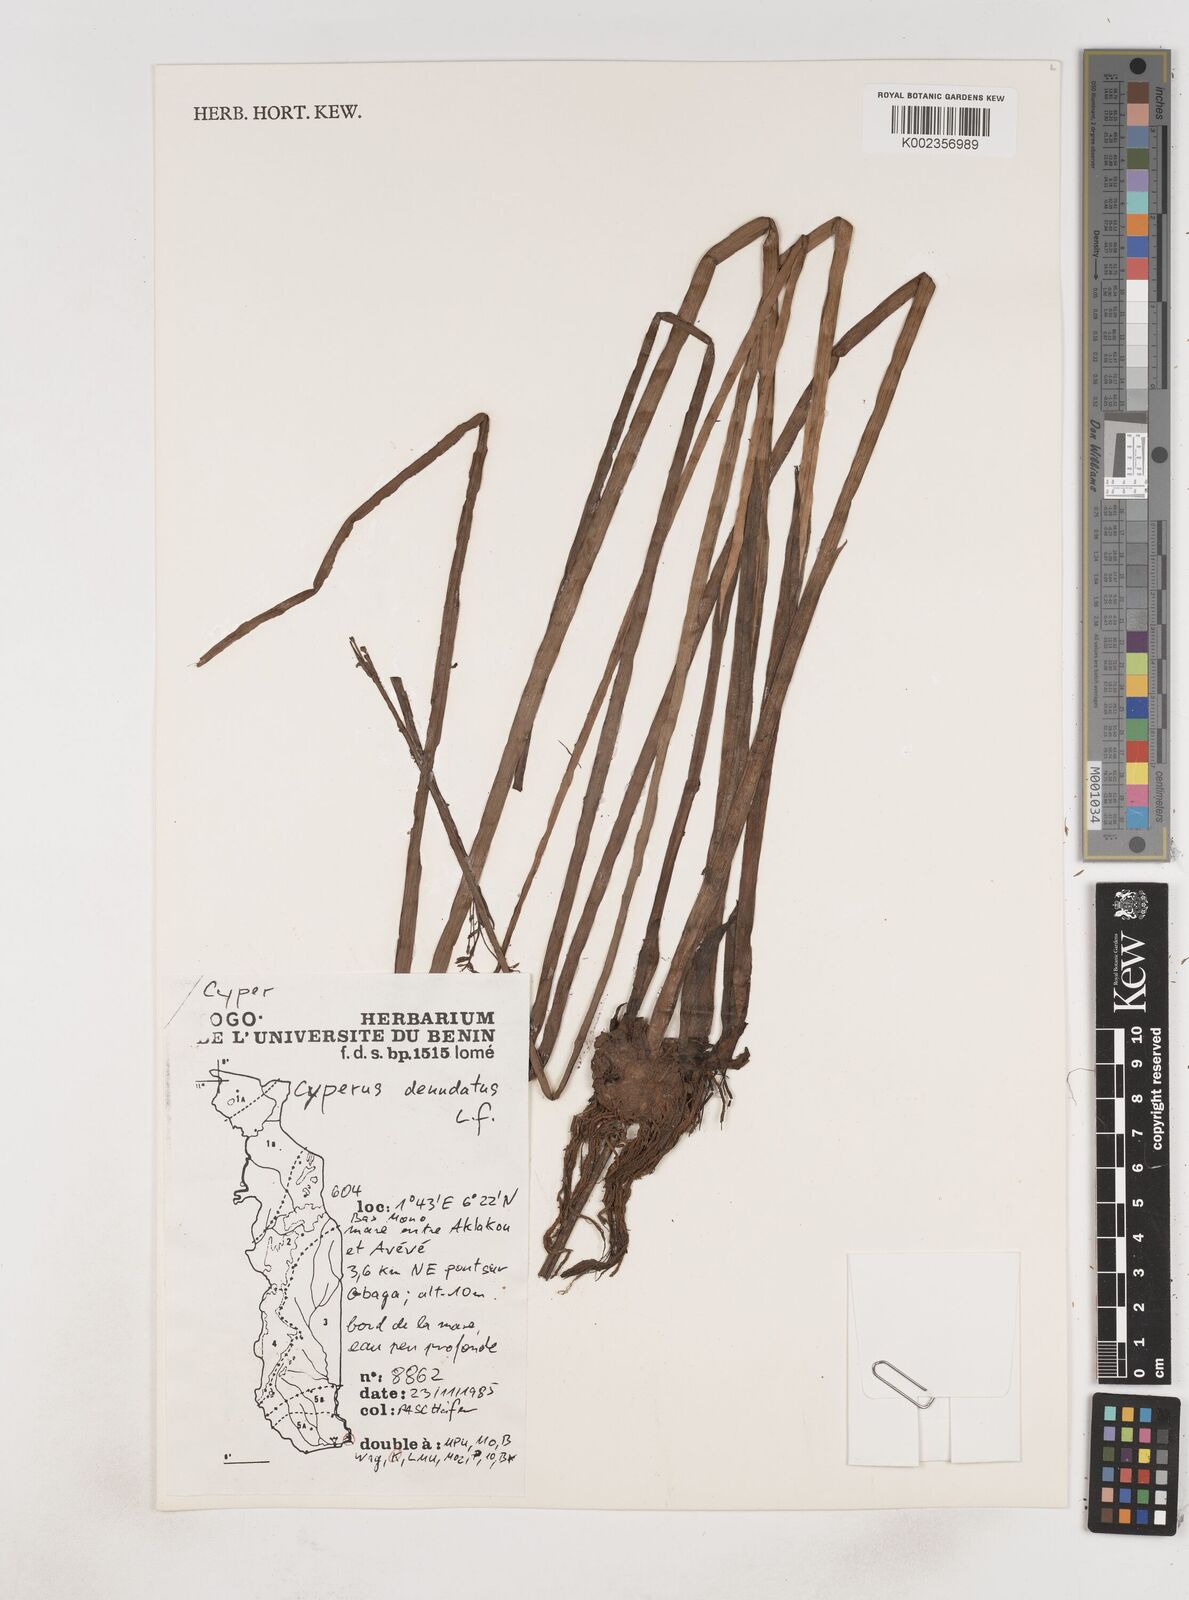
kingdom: Plantae
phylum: Tracheophyta
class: Liliopsida
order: Poales
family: Cyperaceae
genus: Cyperus
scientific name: Cyperus denudatus
